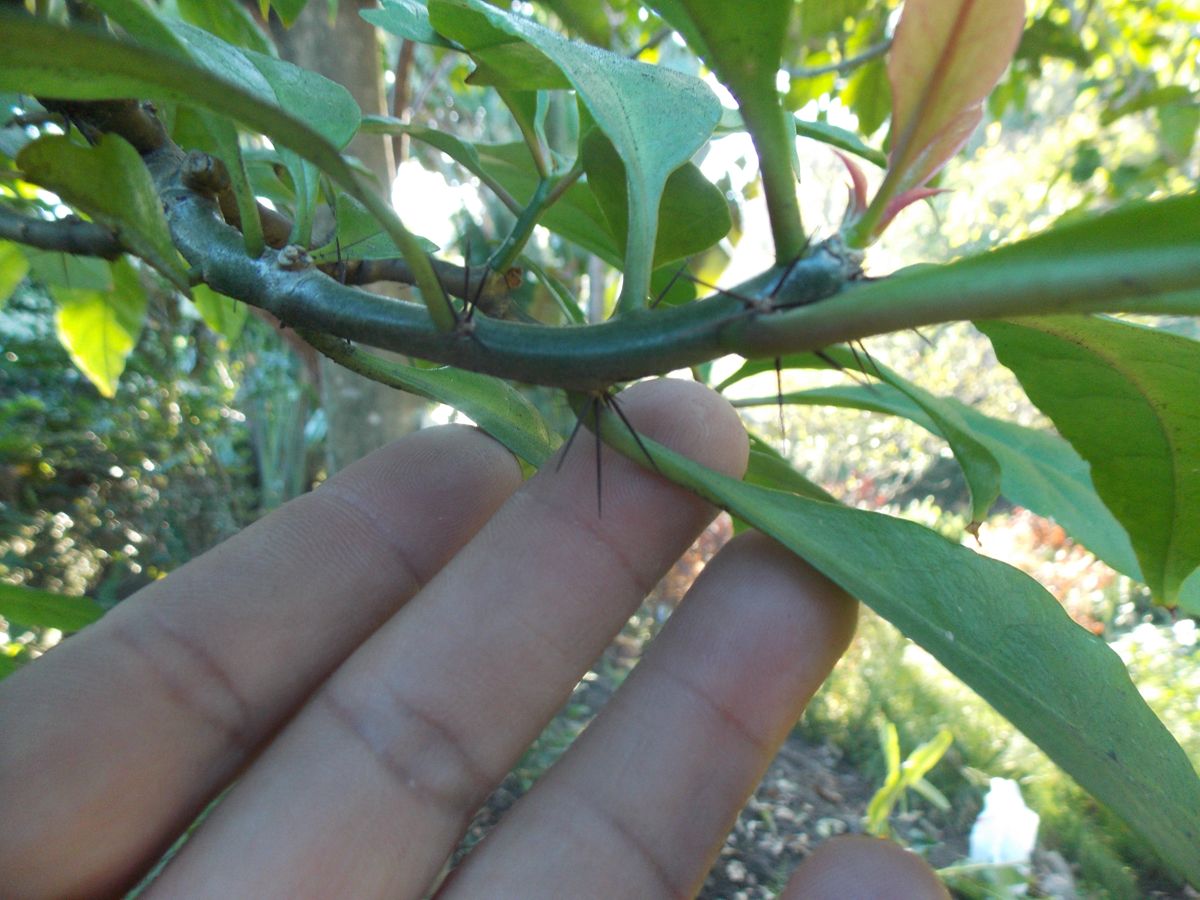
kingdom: Plantae
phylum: Tracheophyta
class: Magnoliopsida
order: Caryophyllales
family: Cactaceae
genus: Leuenbergeria
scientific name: Leuenbergeria bleo
